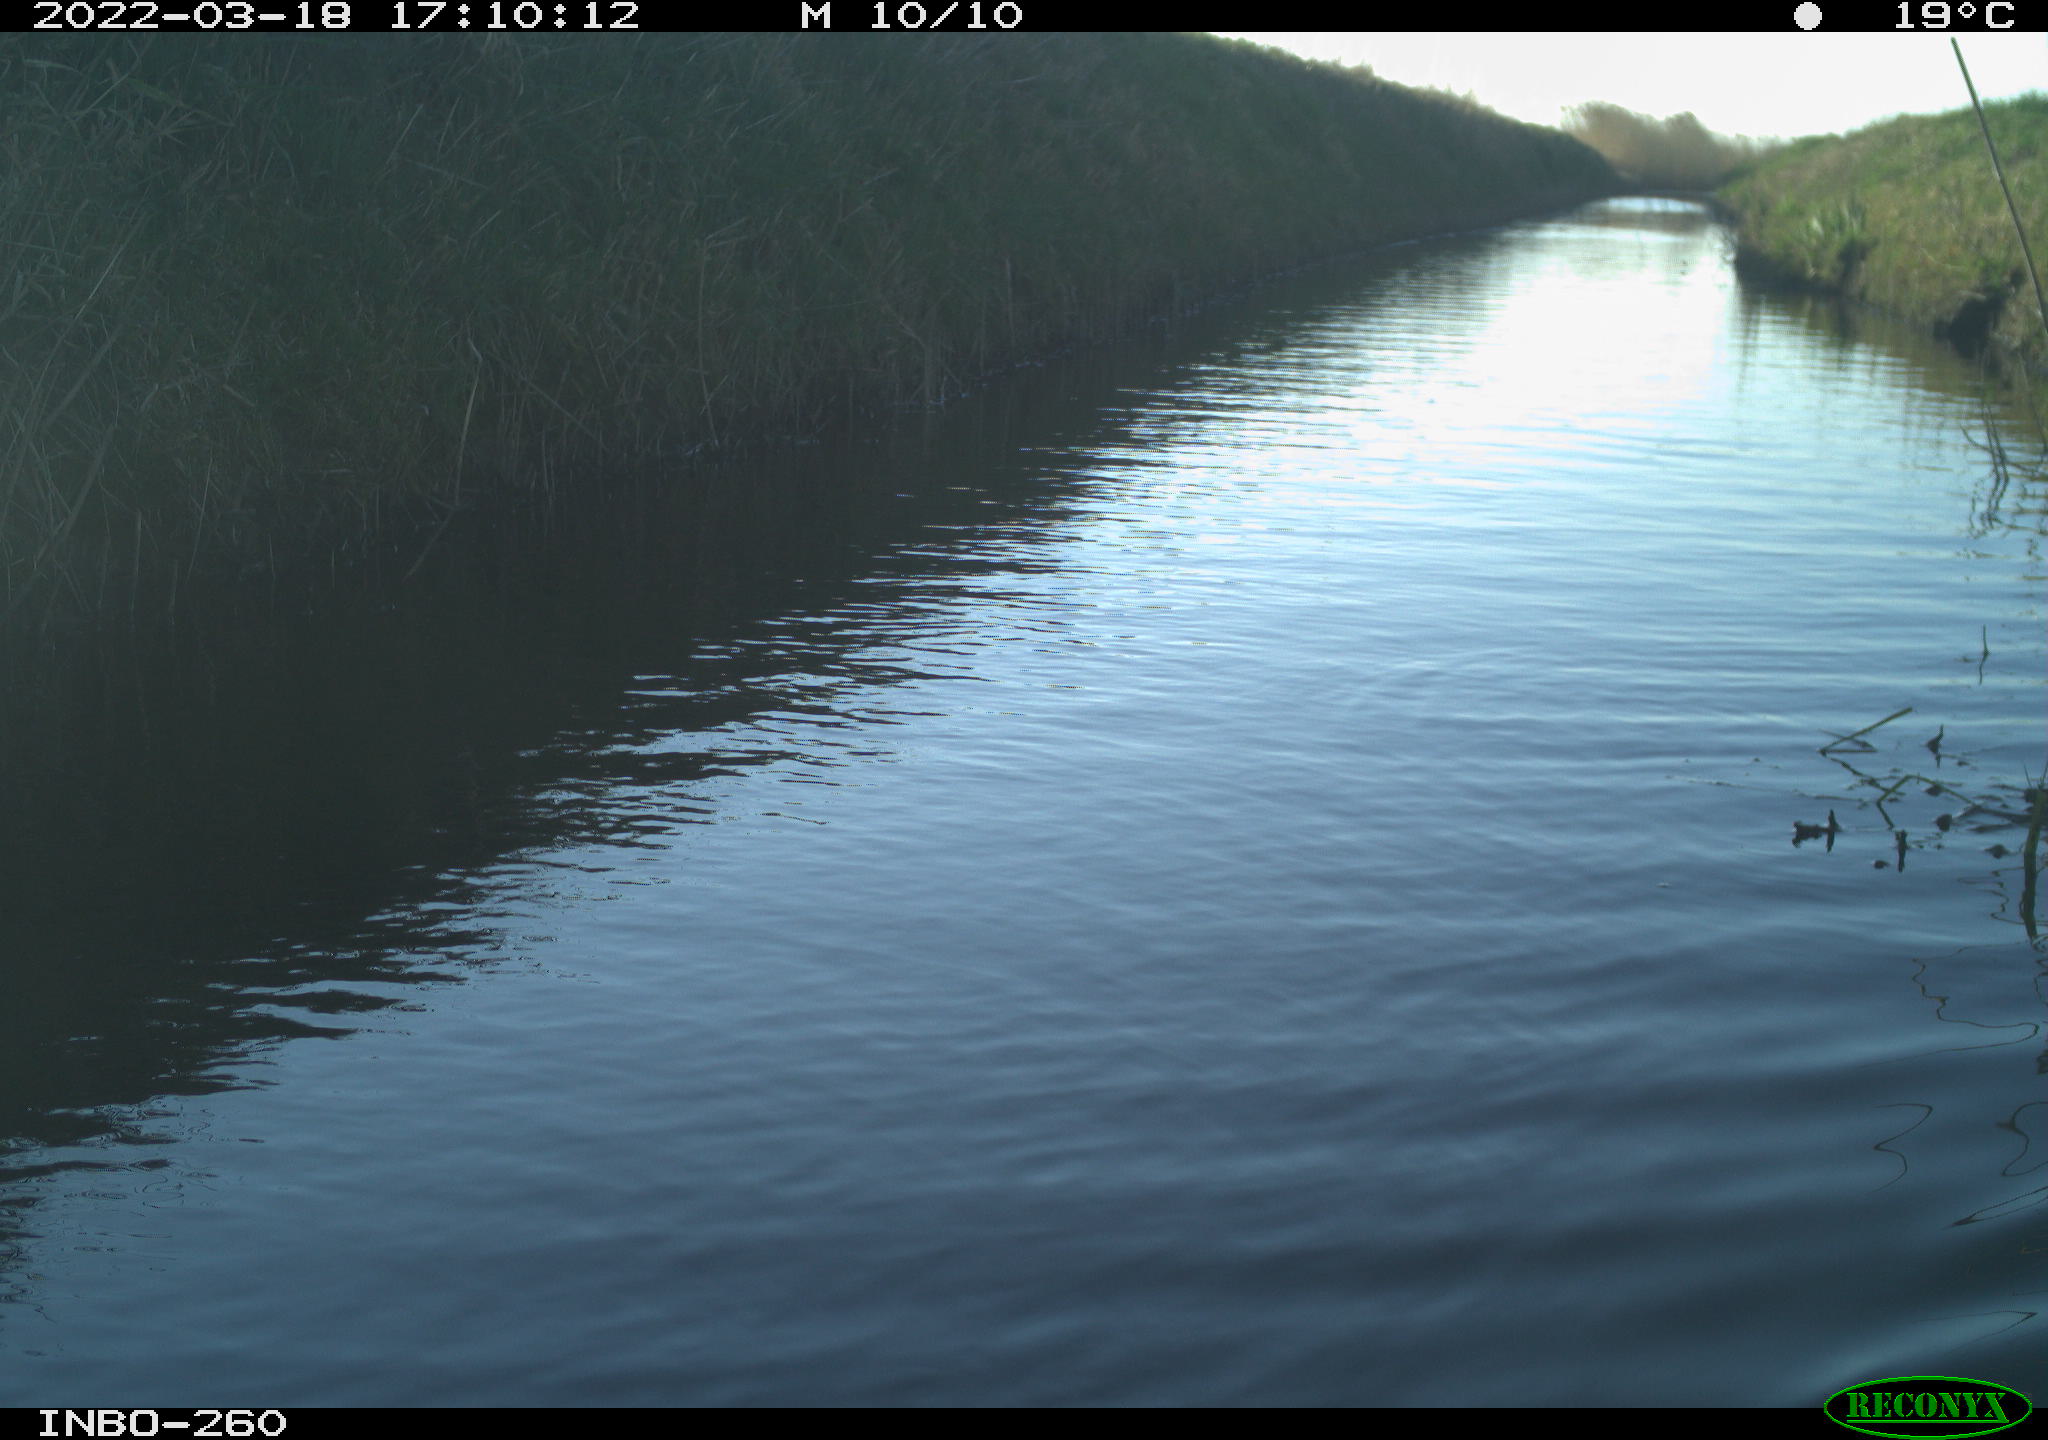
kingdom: Animalia
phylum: Chordata
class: Aves
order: Gruiformes
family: Rallidae
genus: Fulica
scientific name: Fulica atra
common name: Eurasian coot
